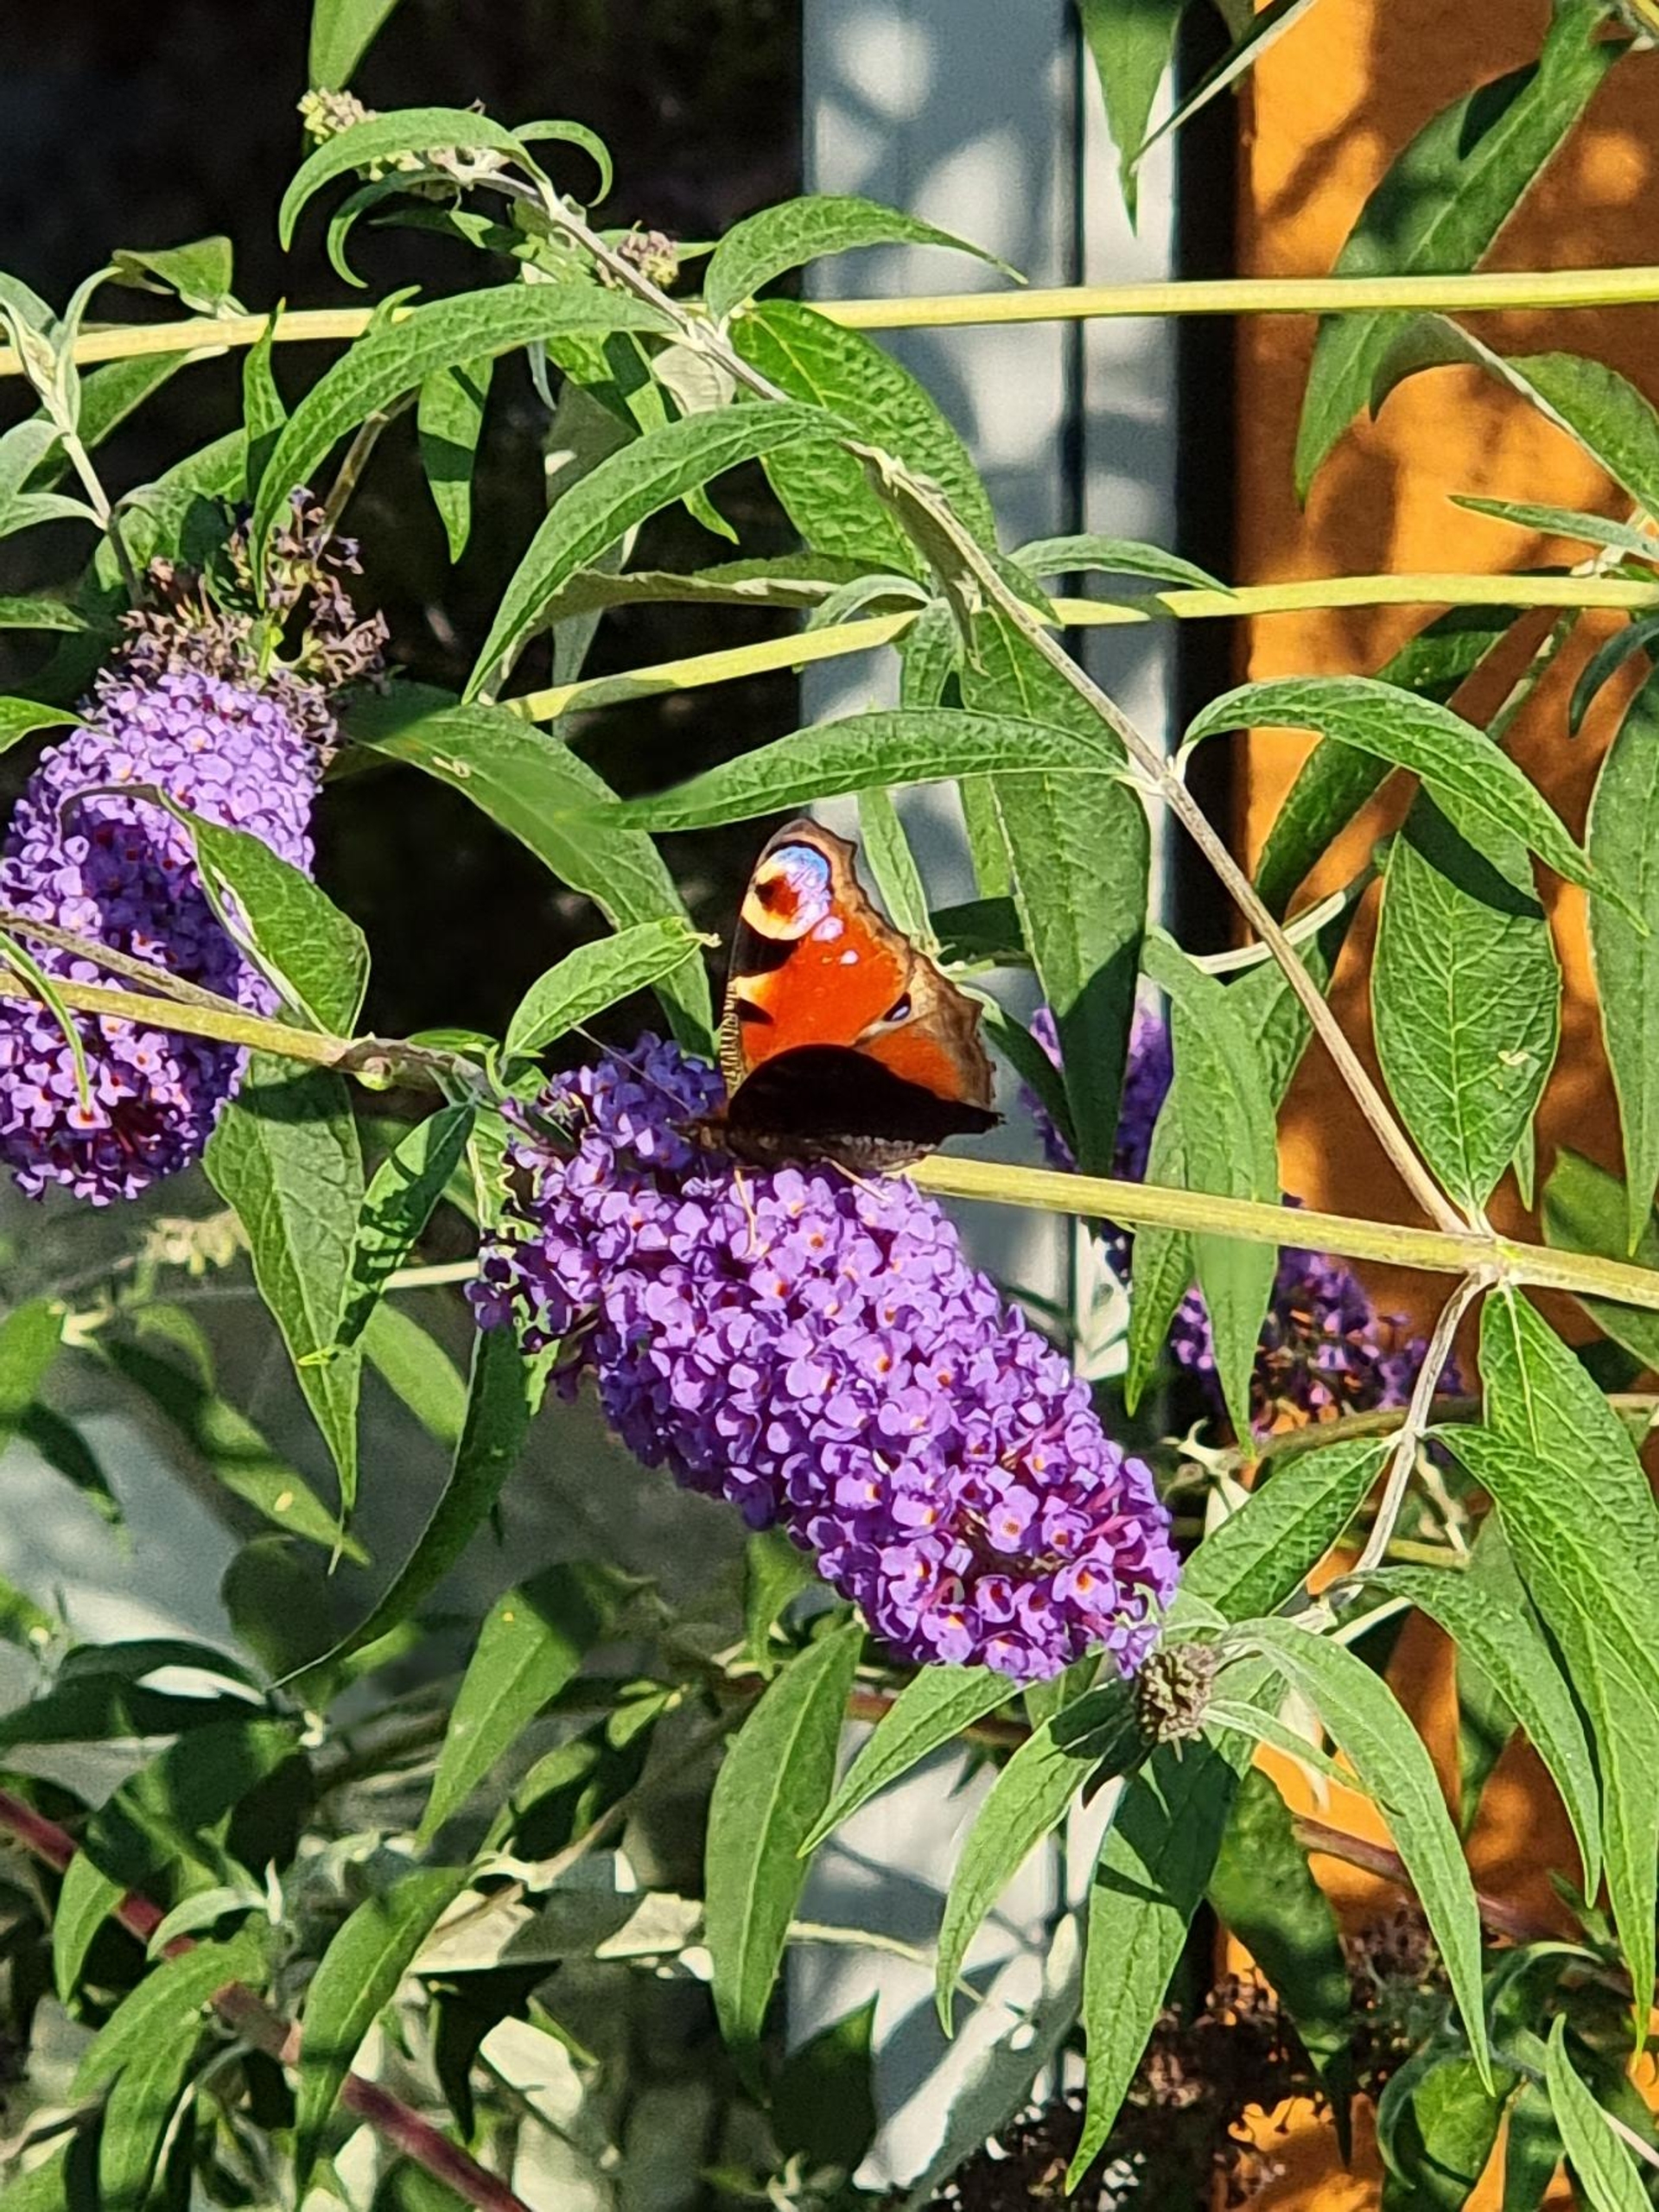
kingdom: Animalia
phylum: Arthropoda
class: Insecta
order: Lepidoptera
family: Nymphalidae
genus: Aglais
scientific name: Aglais io
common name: Dagpåfugleøje
